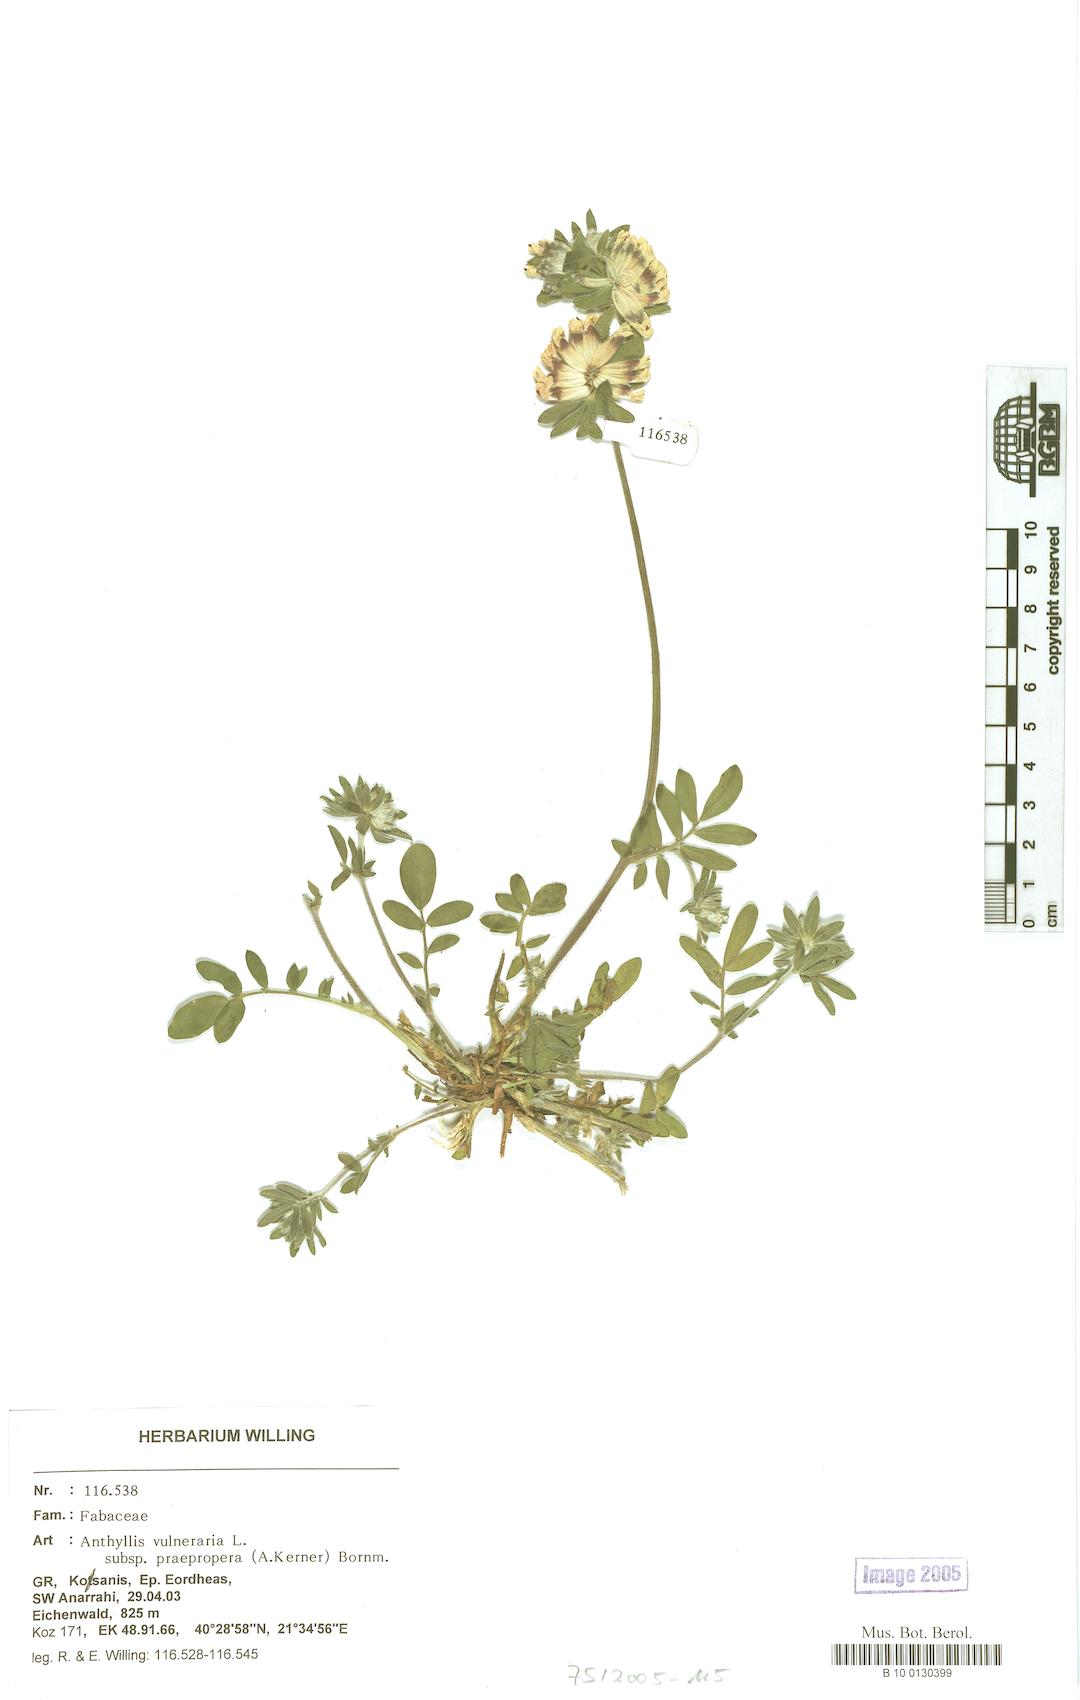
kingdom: Plantae
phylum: Tracheophyta
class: Magnoliopsida
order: Fabales
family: Fabaceae
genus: Anthyllis
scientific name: Anthyllis vulneraria
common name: Kidney vetch
